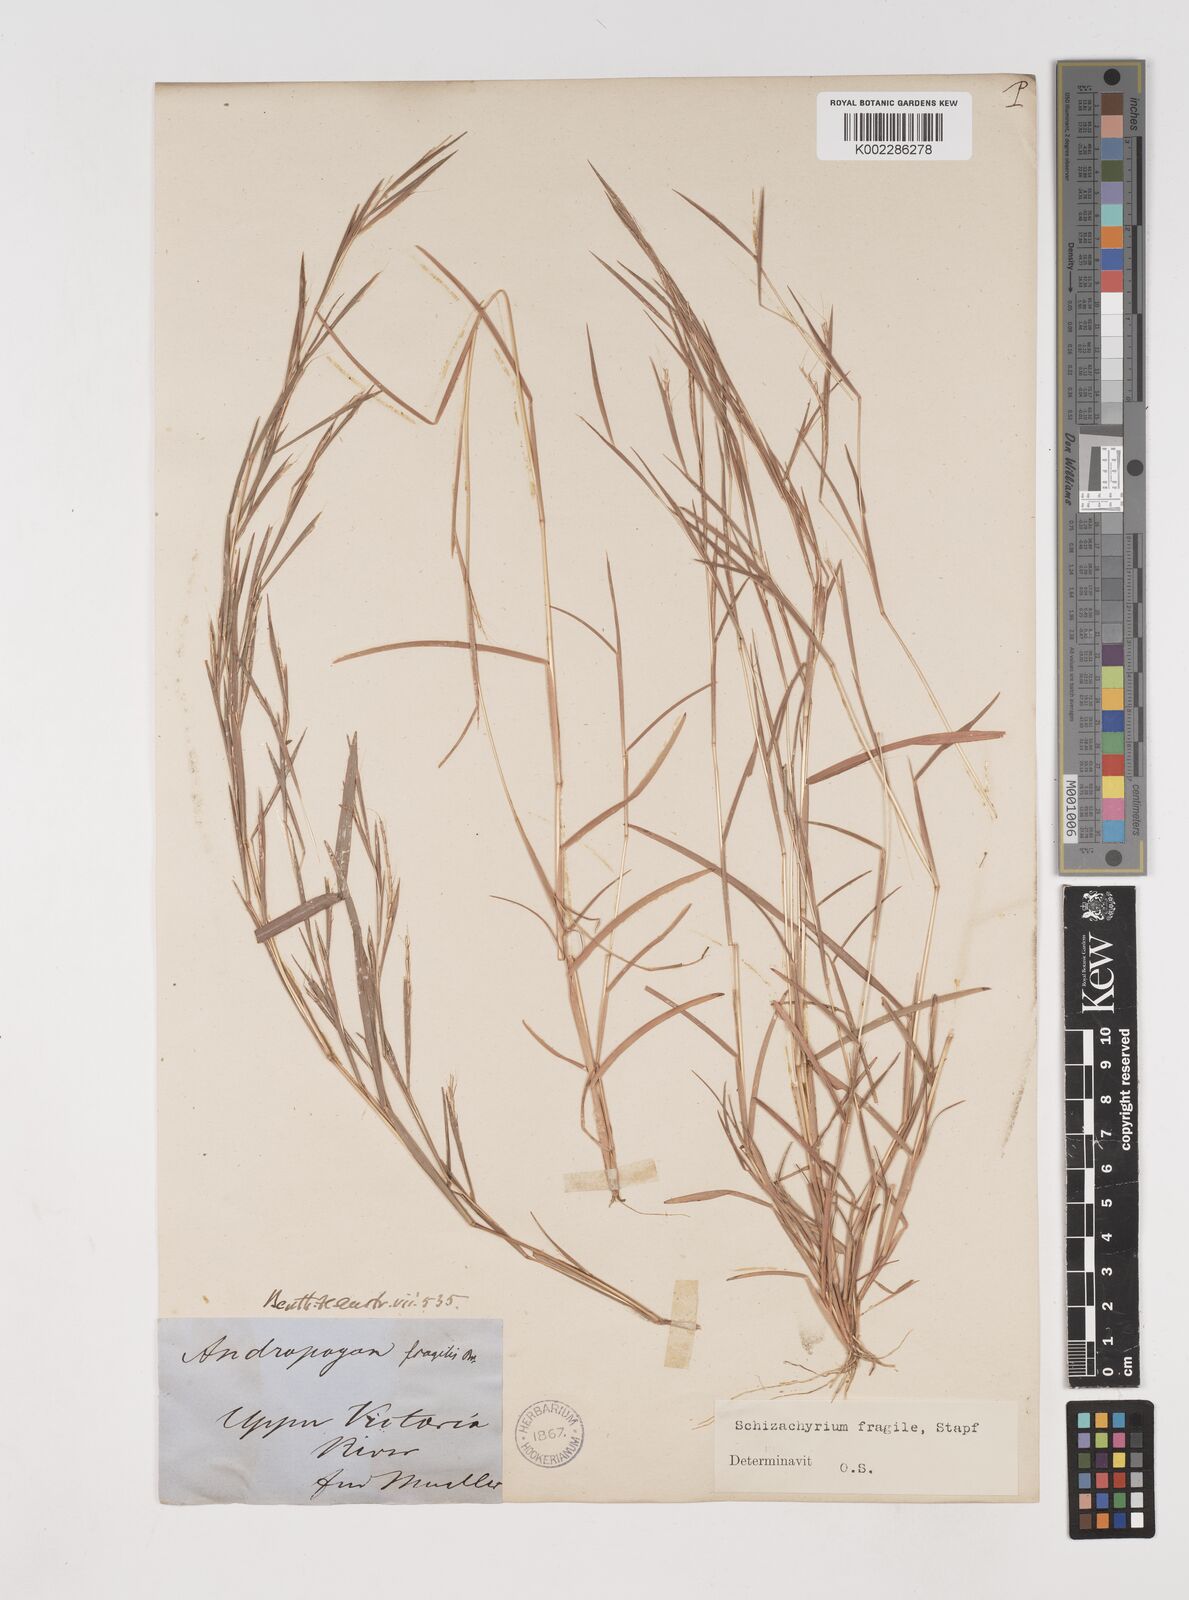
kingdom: Plantae
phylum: Tracheophyta
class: Liliopsida
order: Poales
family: Poaceae
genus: Schizachyrium
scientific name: Schizachyrium pseudeulalia
